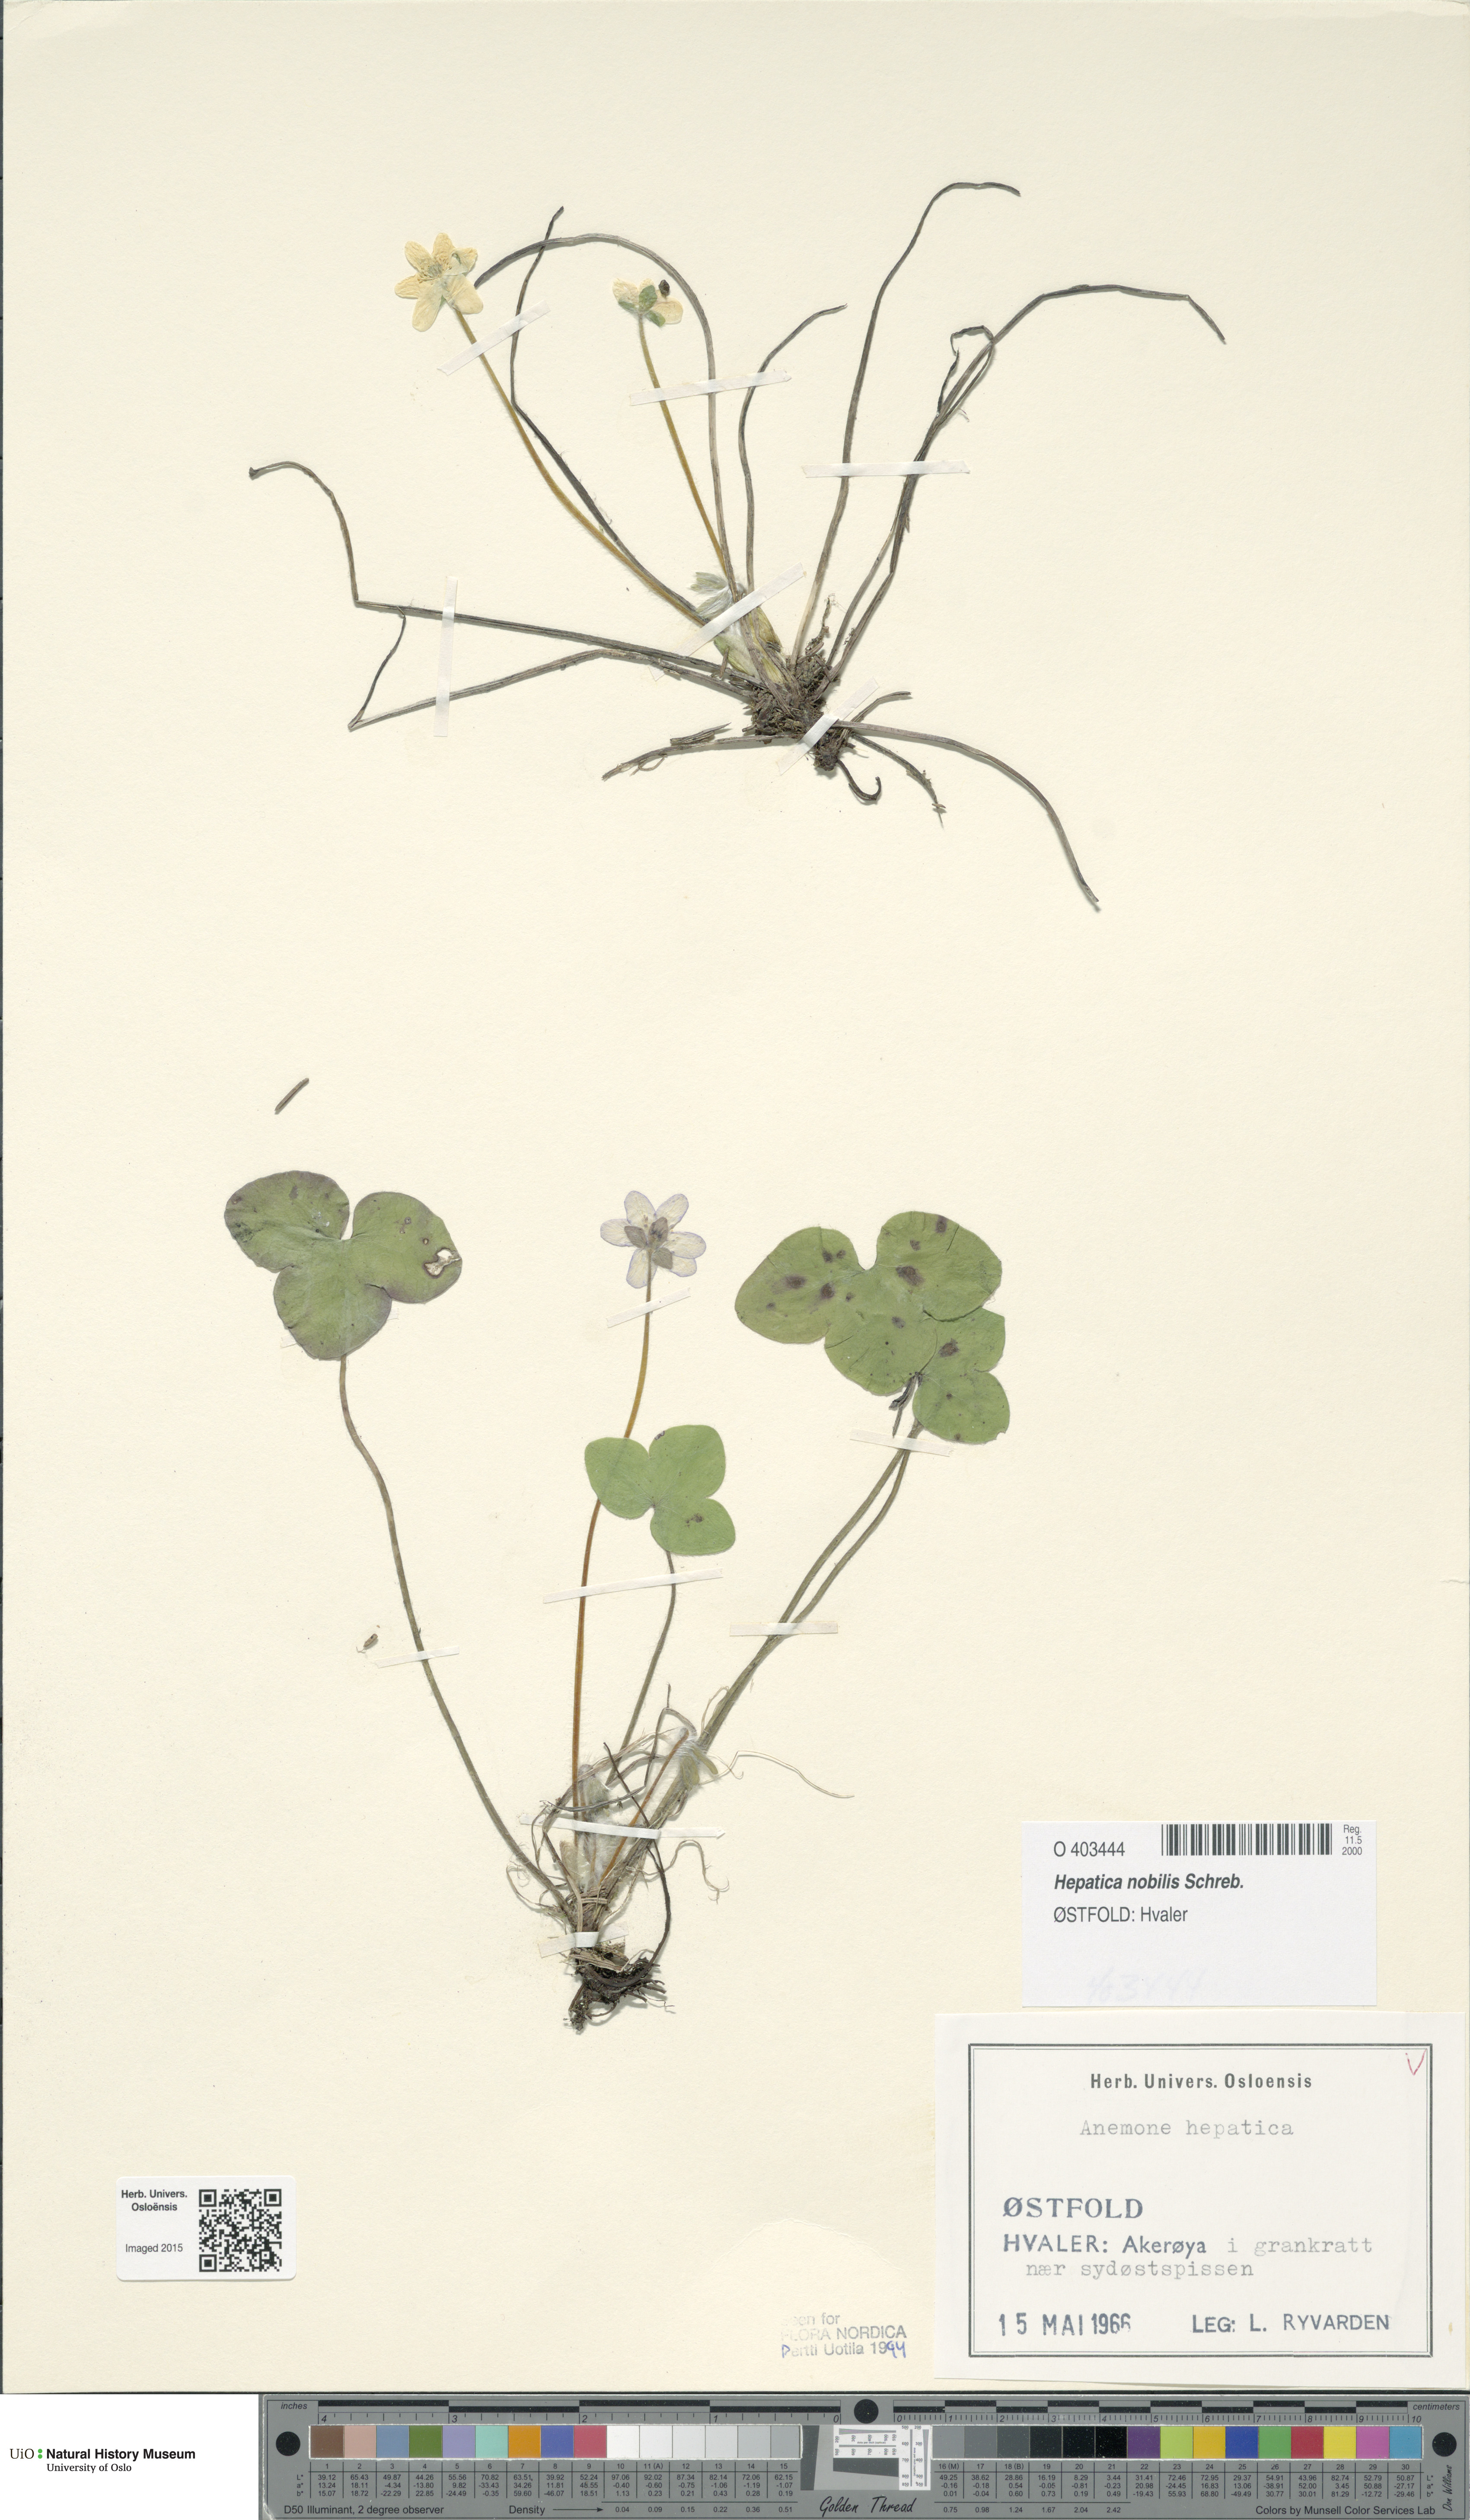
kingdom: Plantae
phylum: Tracheophyta
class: Magnoliopsida
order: Ranunculales
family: Ranunculaceae
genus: Hepatica
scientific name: Hepatica nobilis
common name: Liverleaf
